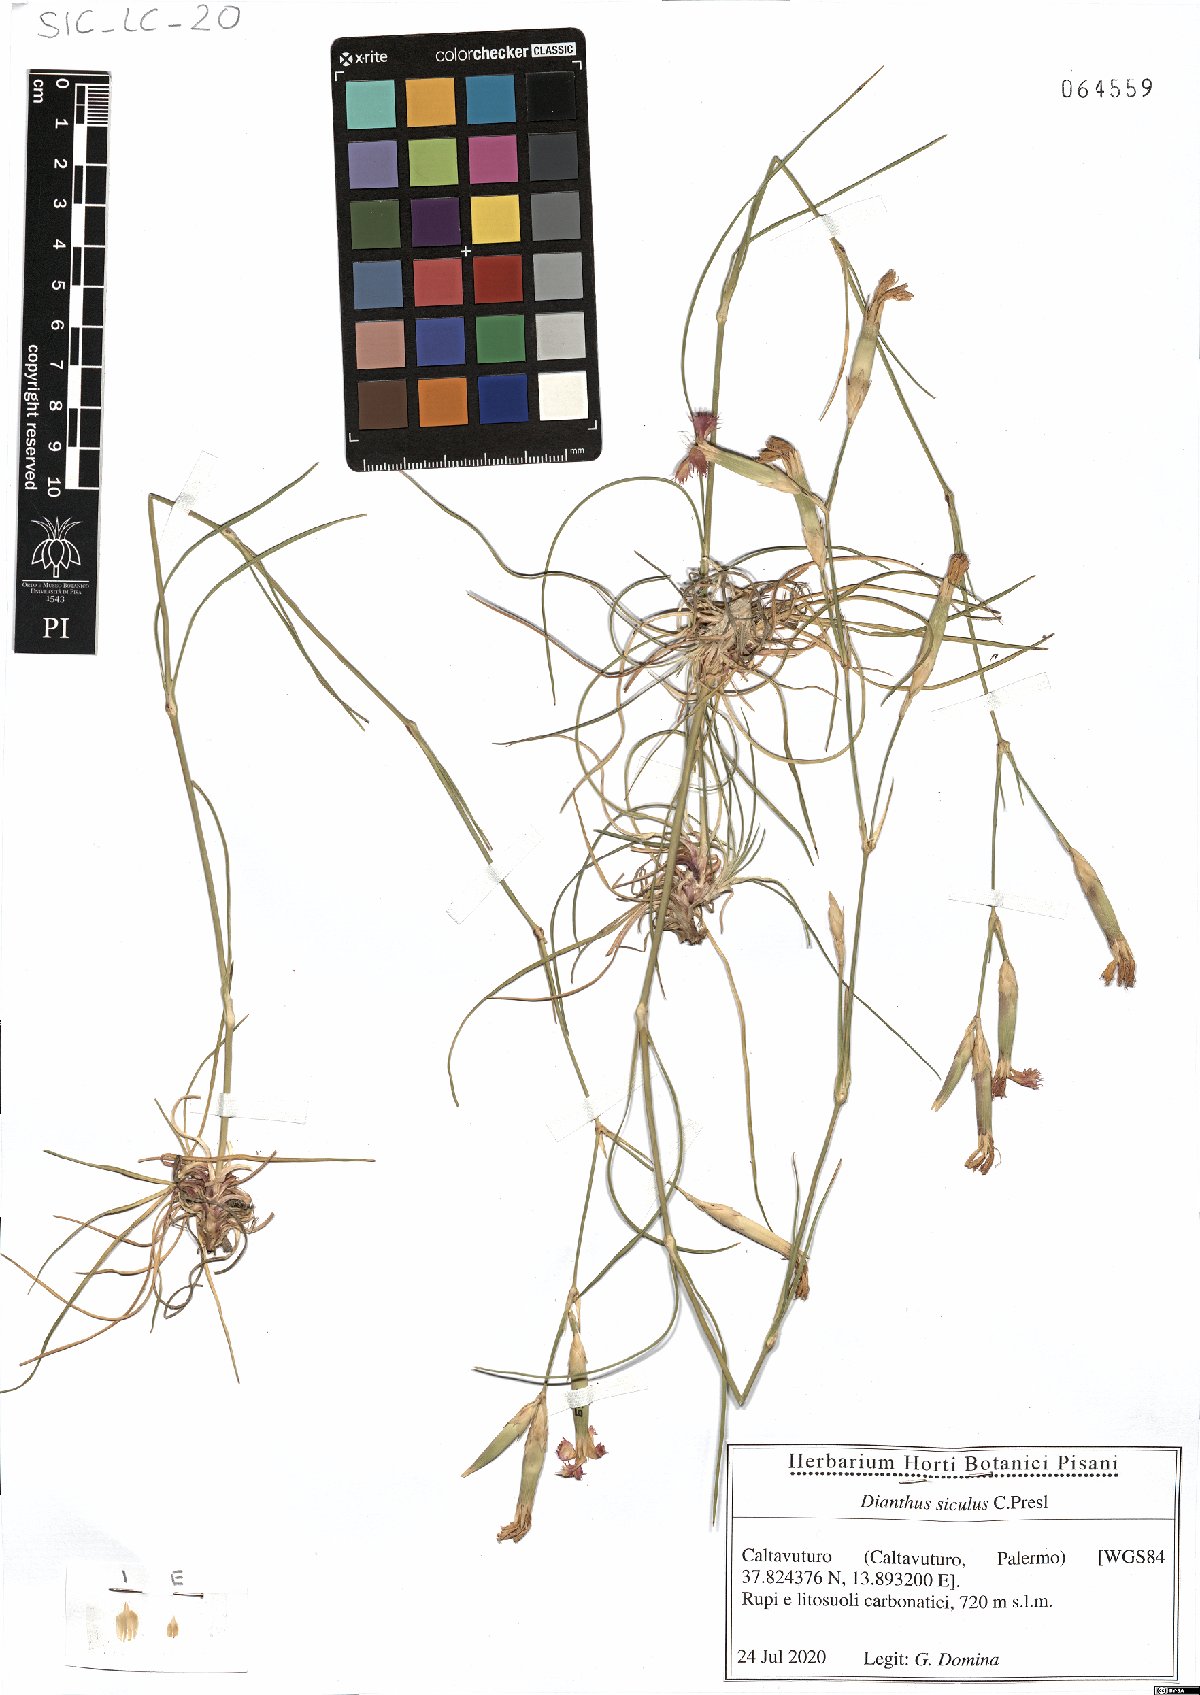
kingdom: Plantae
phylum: Tracheophyta
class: Magnoliopsida
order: Caryophyllales
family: Caryophyllaceae
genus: Dianthus
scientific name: Dianthus siculus
